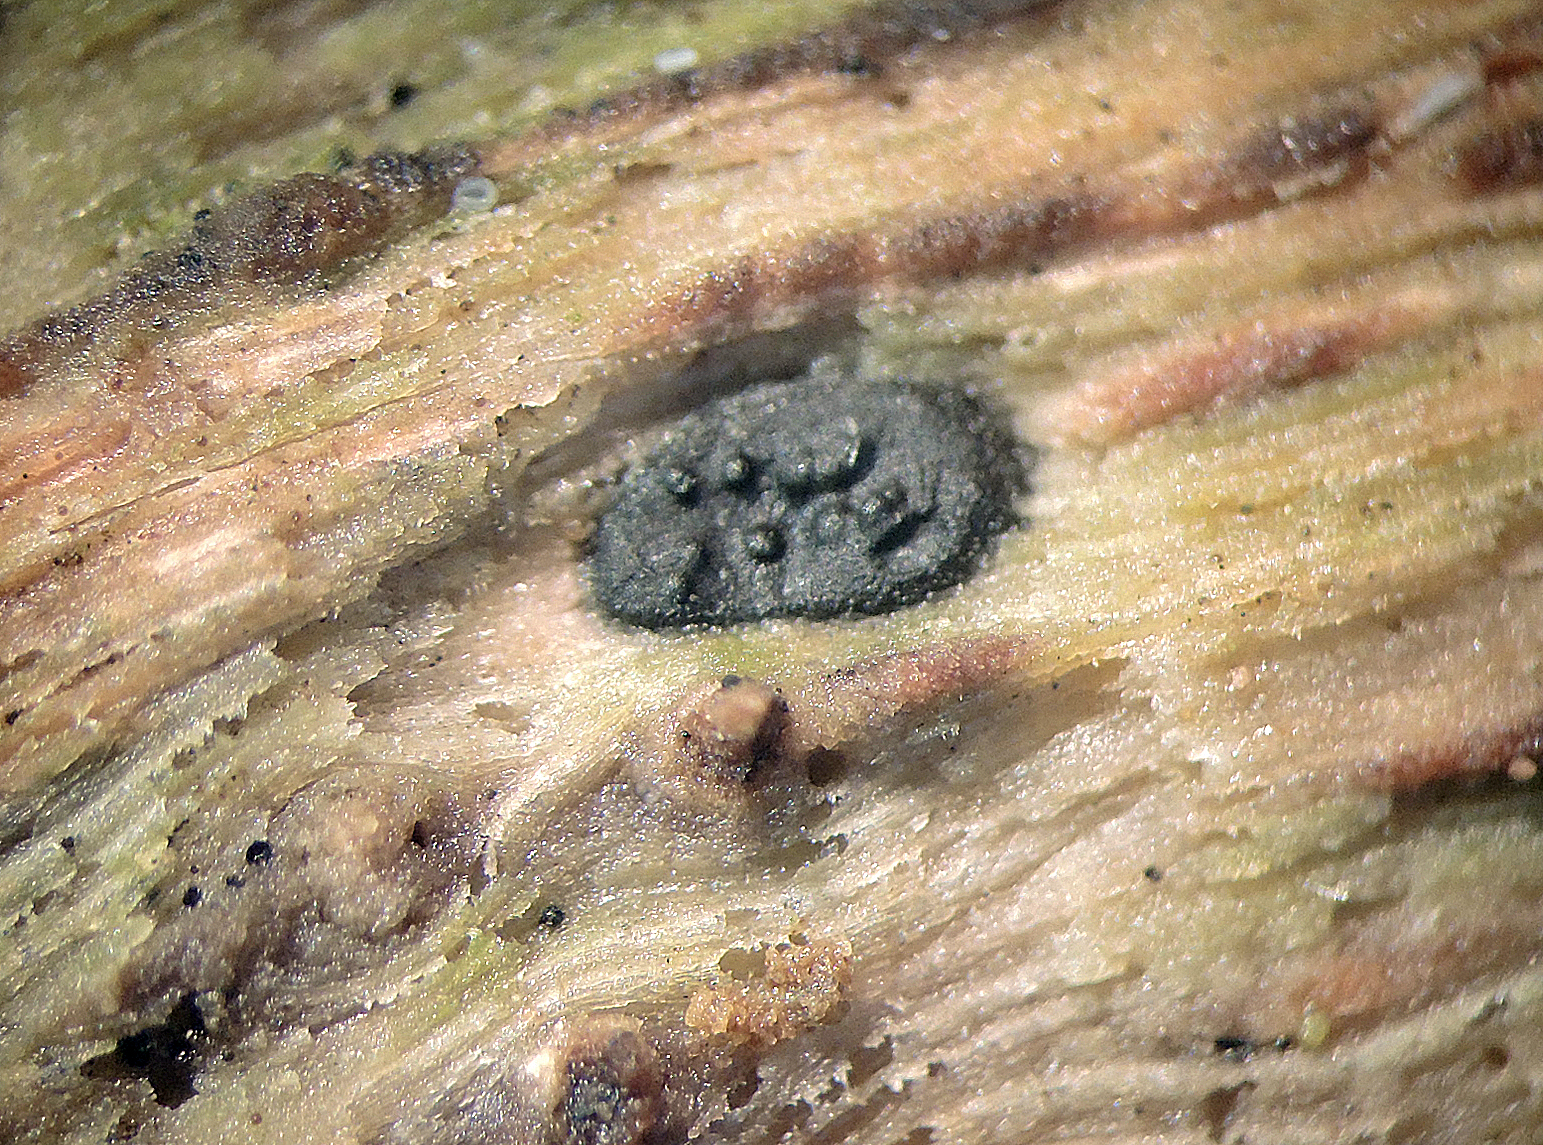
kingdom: Fungi
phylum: Ascomycota
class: Sordariomycetes
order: Xylariales
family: Xylariaceae
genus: Euepixylon
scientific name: Euepixylon udum
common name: ege-kuldyne
